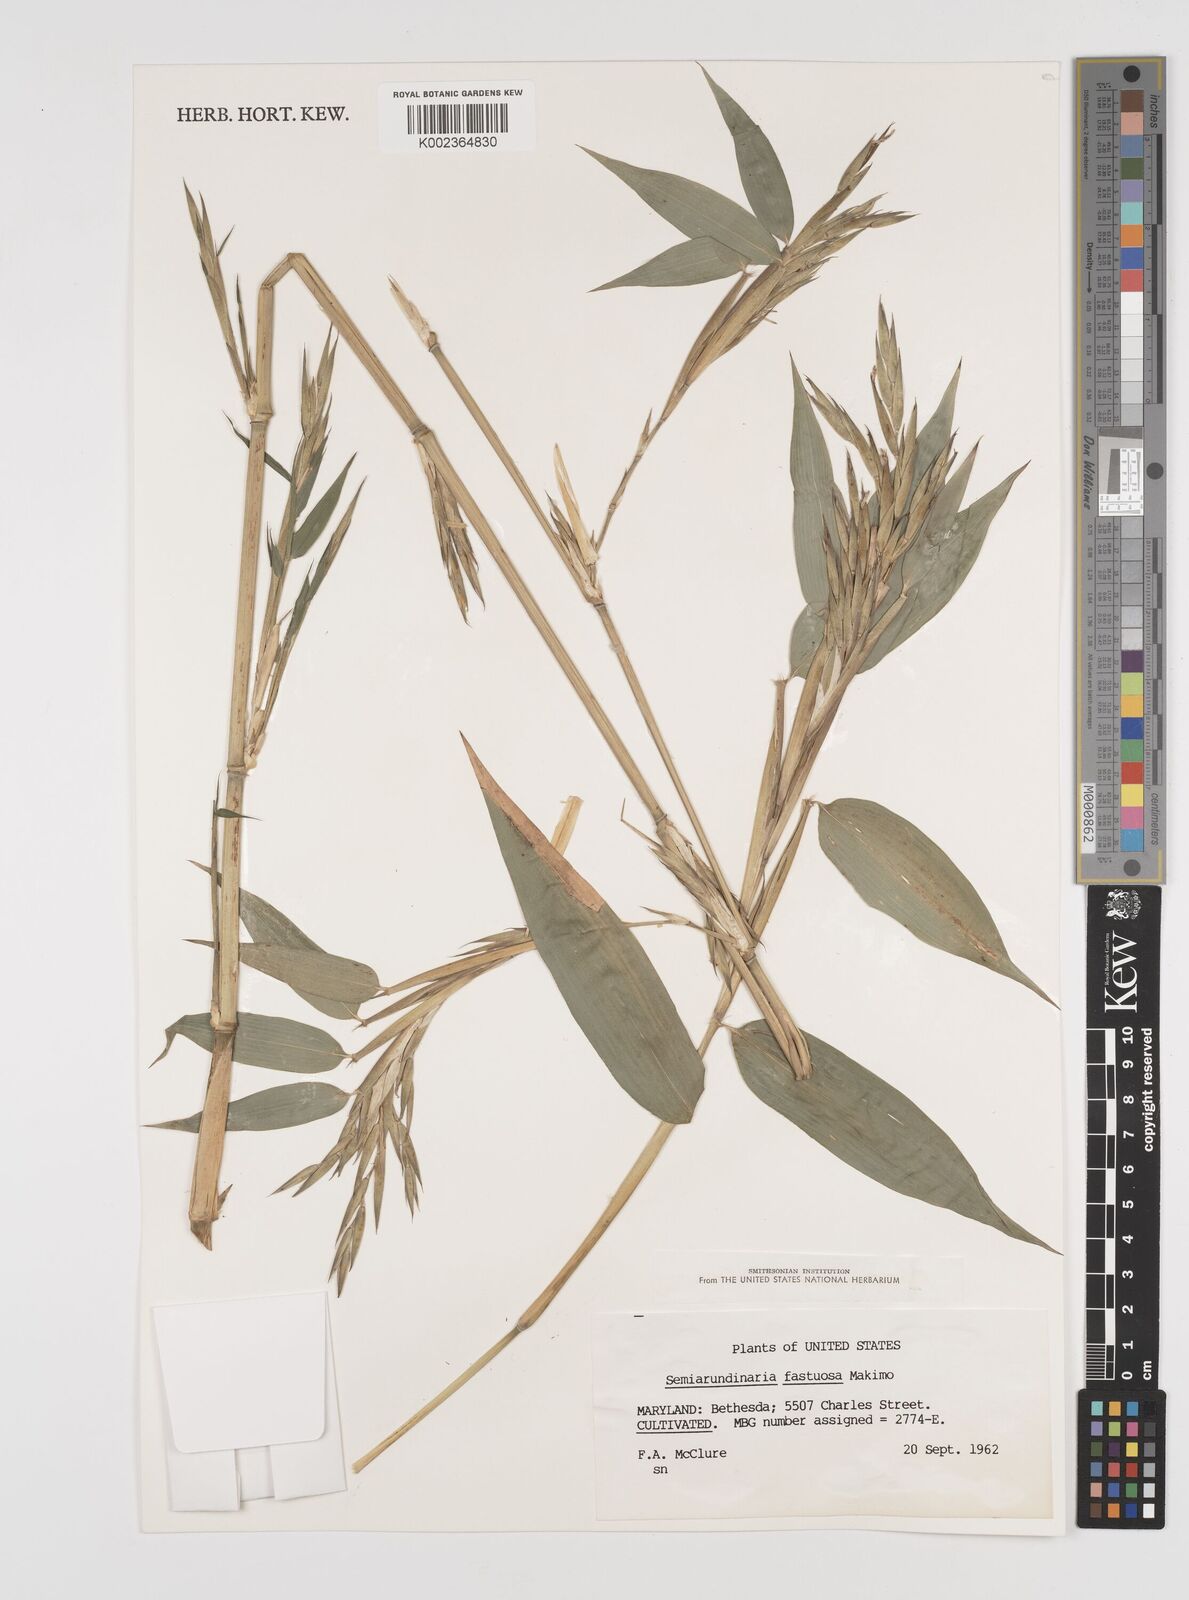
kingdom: Plantae
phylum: Tracheophyta
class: Liliopsida
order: Poales
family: Poaceae
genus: Semiarundinaria
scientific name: Semiarundinaria fastuosa
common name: Narihira bamboo
